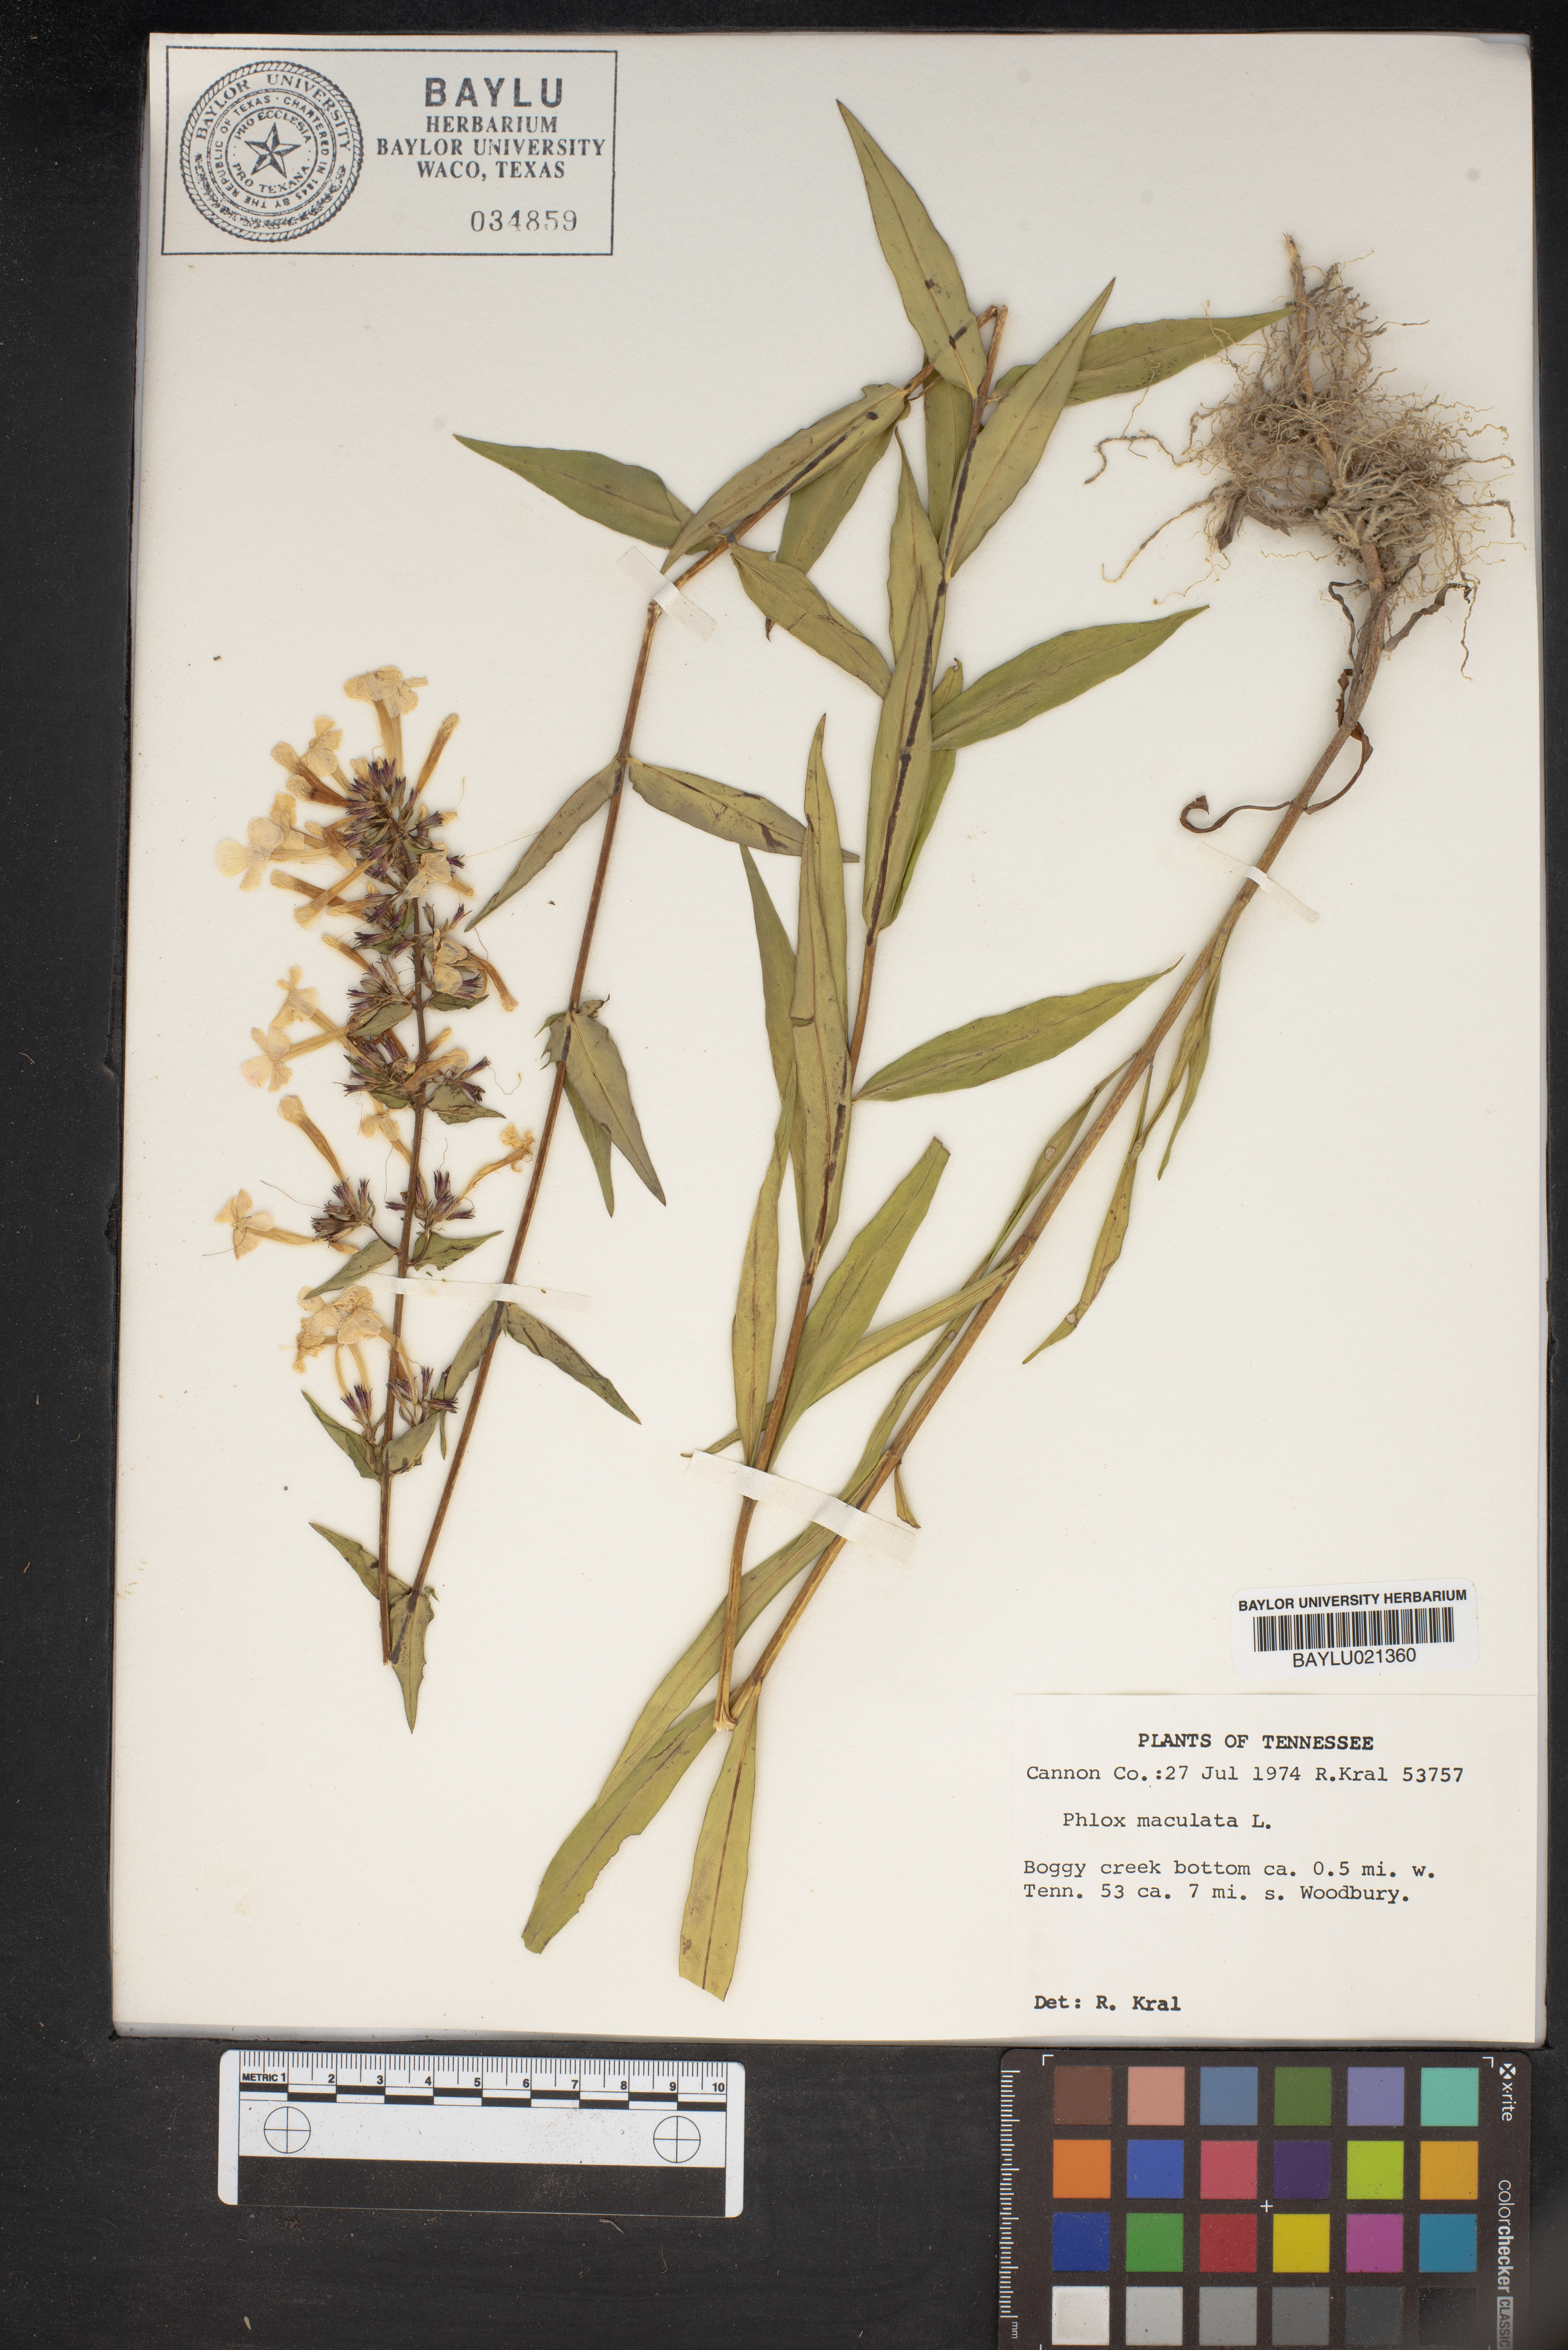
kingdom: Plantae
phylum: Tracheophyta
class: Magnoliopsida
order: Ericales
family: Polemoniaceae
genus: Phlox
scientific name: Phlox maculata
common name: Meadow phlox
